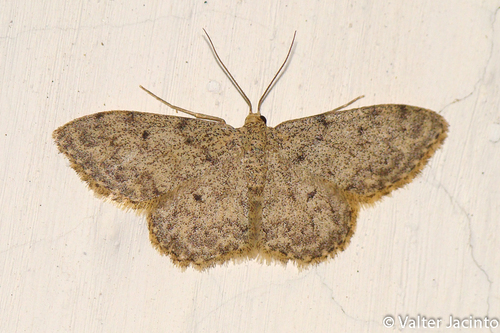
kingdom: Animalia
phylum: Arthropoda
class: Insecta
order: Lepidoptera
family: Geometridae
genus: Idaea
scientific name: Idaea cervantaria
